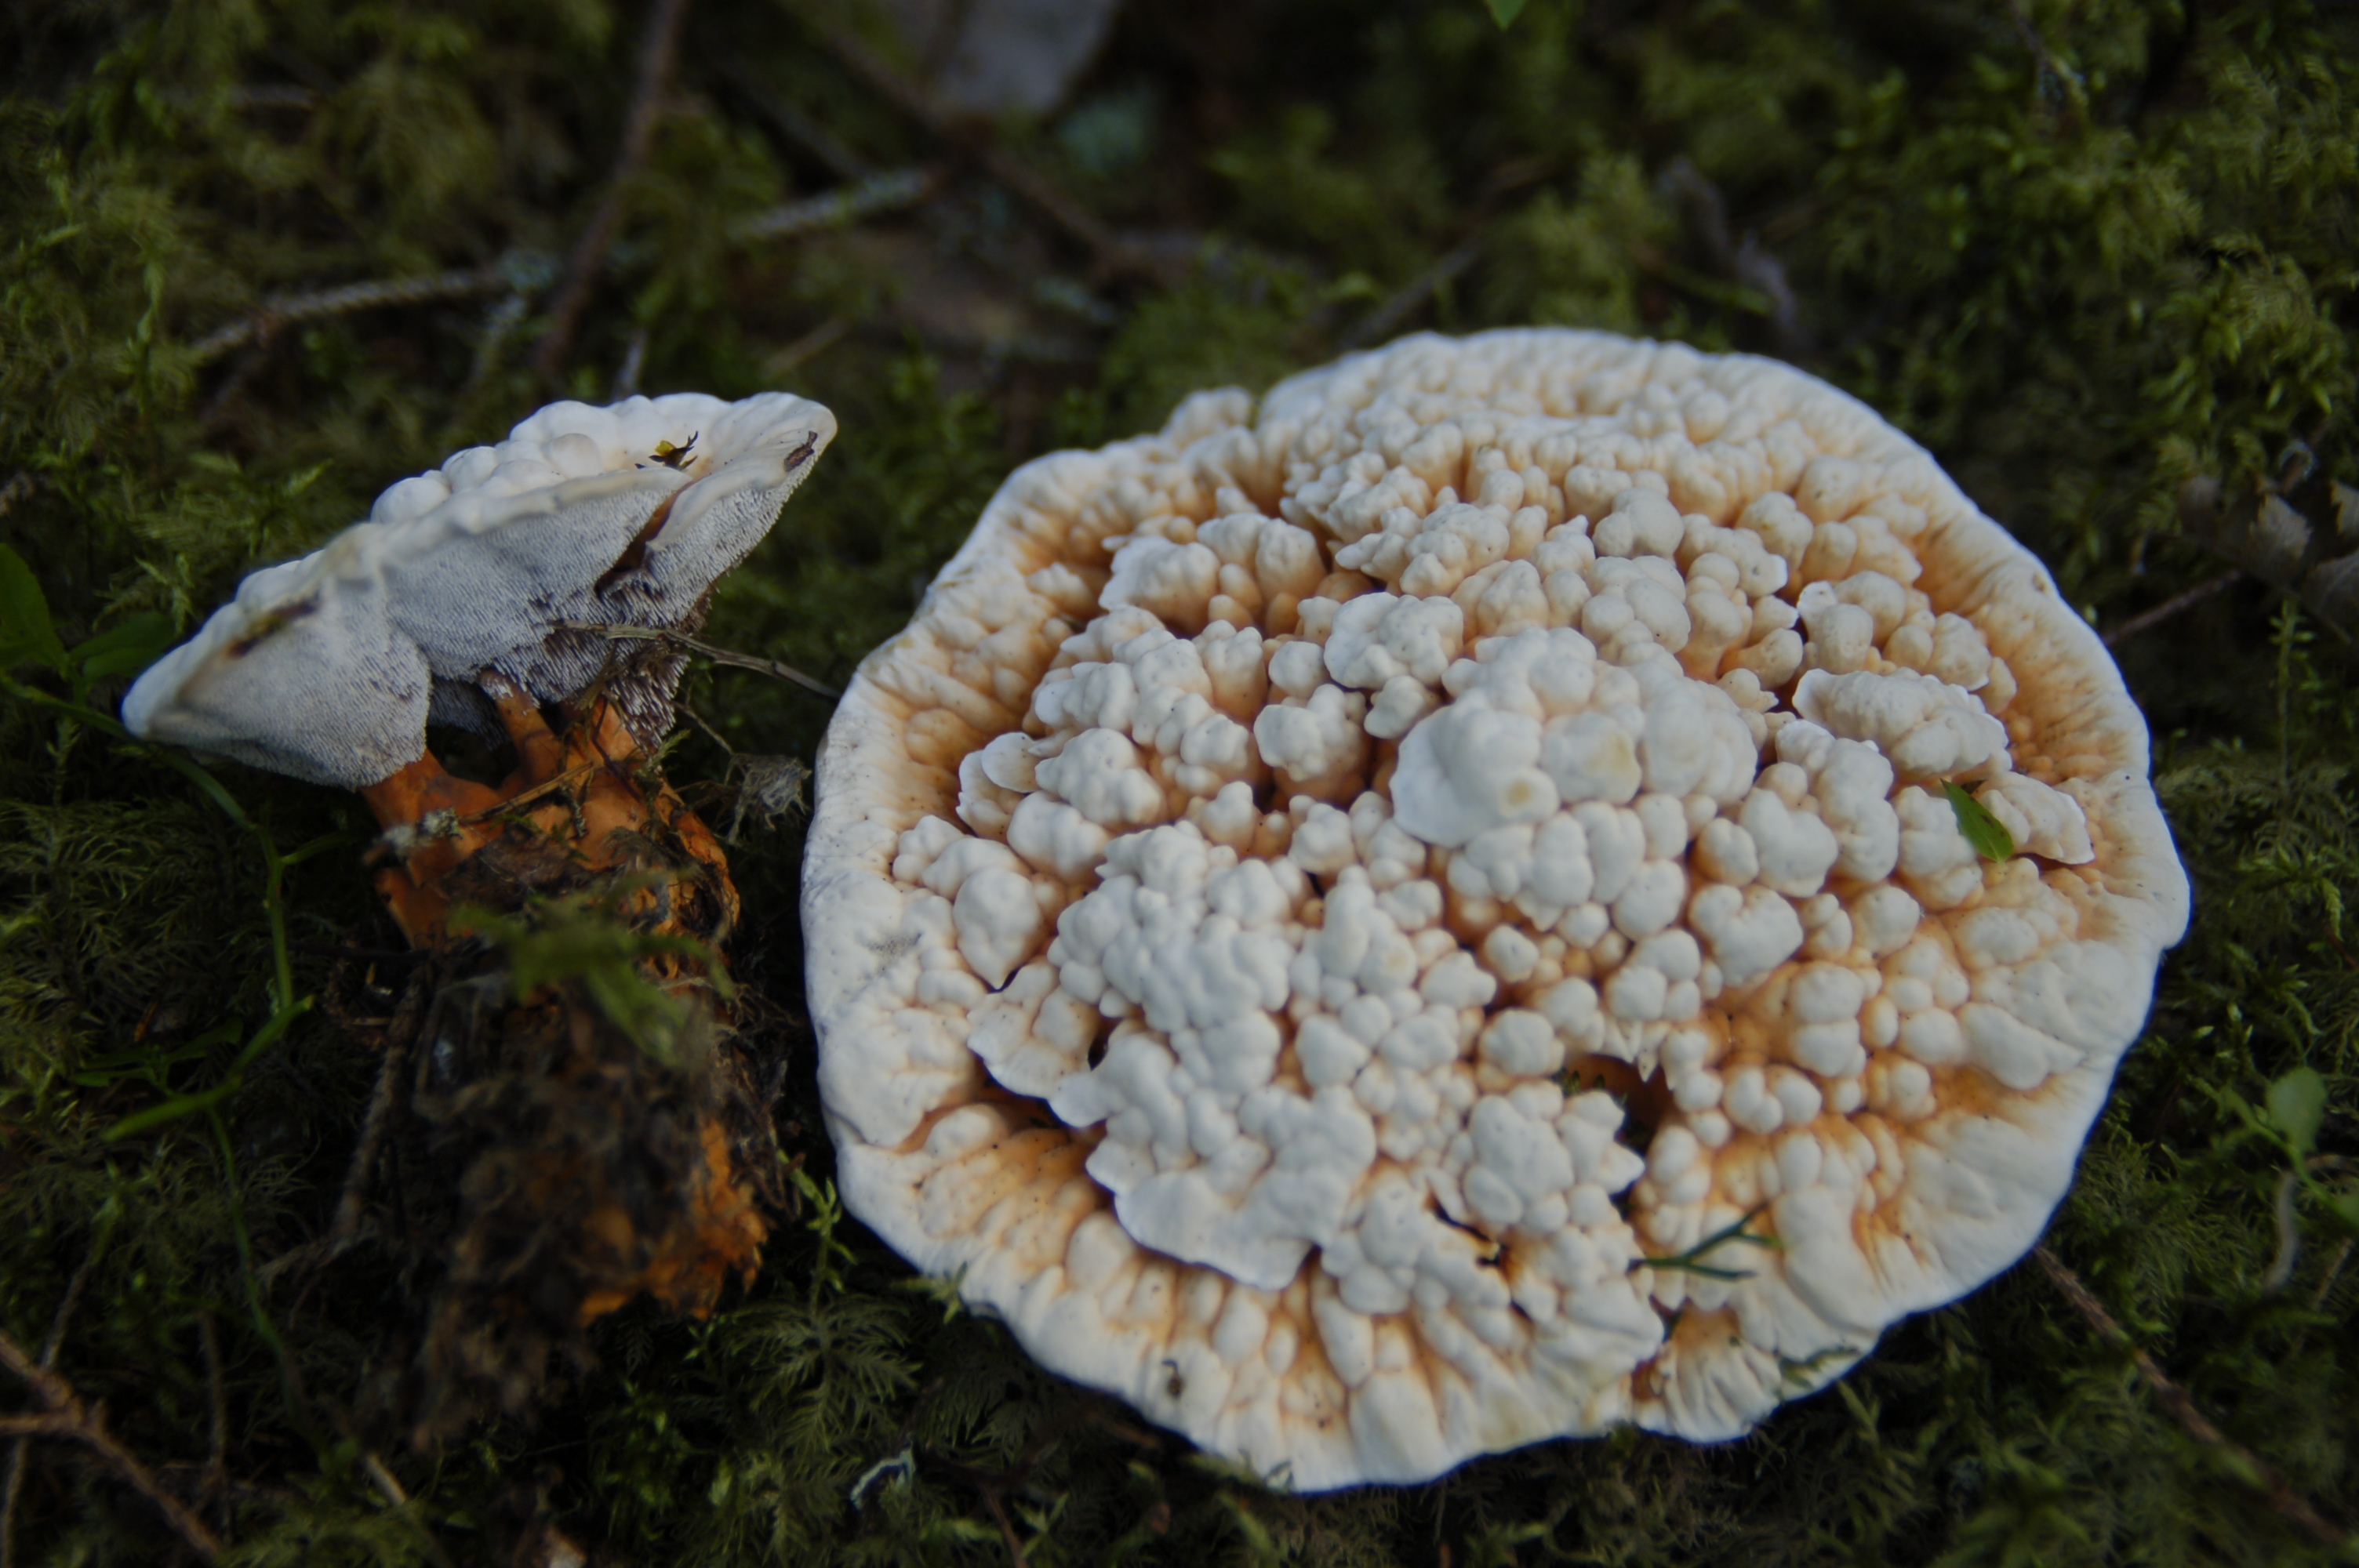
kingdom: Fungi
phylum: Basidiomycota
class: Agaricomycetes
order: Thelephorales
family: Bankeraceae
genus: Hydnellum
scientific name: Hydnellum aurantiacum
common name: Orange tooth
